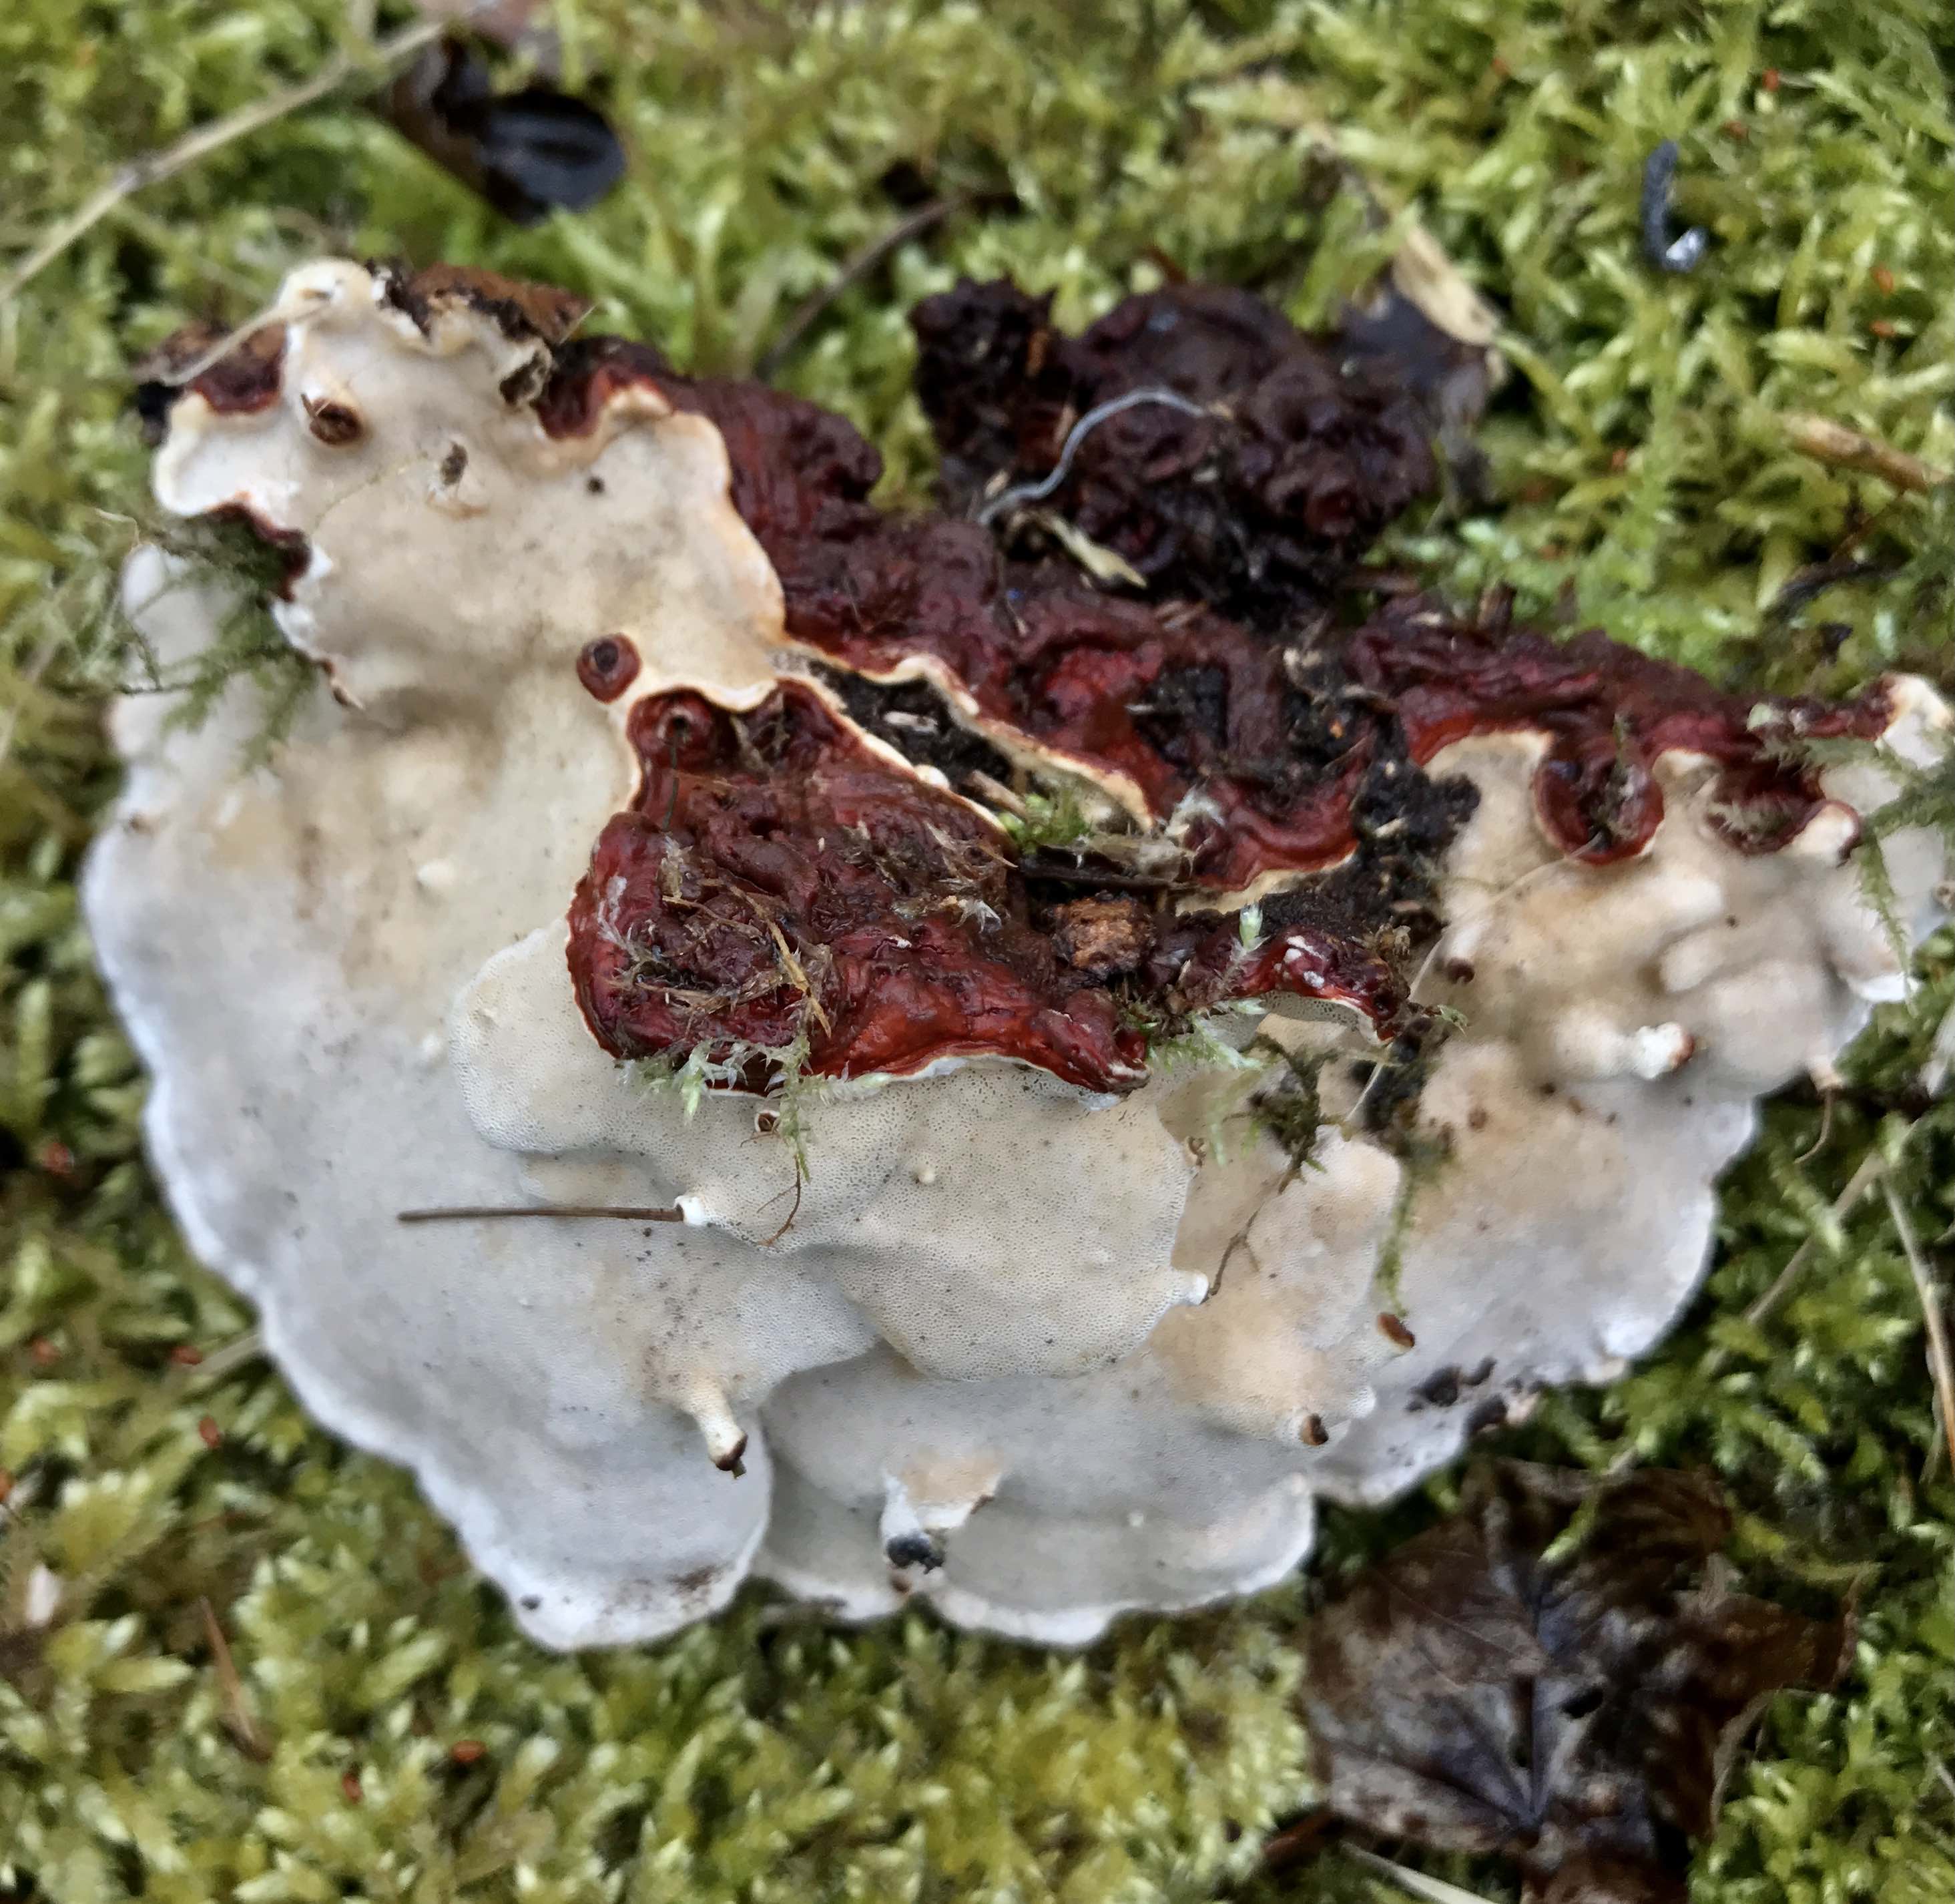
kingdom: Fungi
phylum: Basidiomycota
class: Agaricomycetes
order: Russulales
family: Bondarzewiaceae
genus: Heterobasidion
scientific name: Heterobasidion annosum
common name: almindelig rodfordærver
